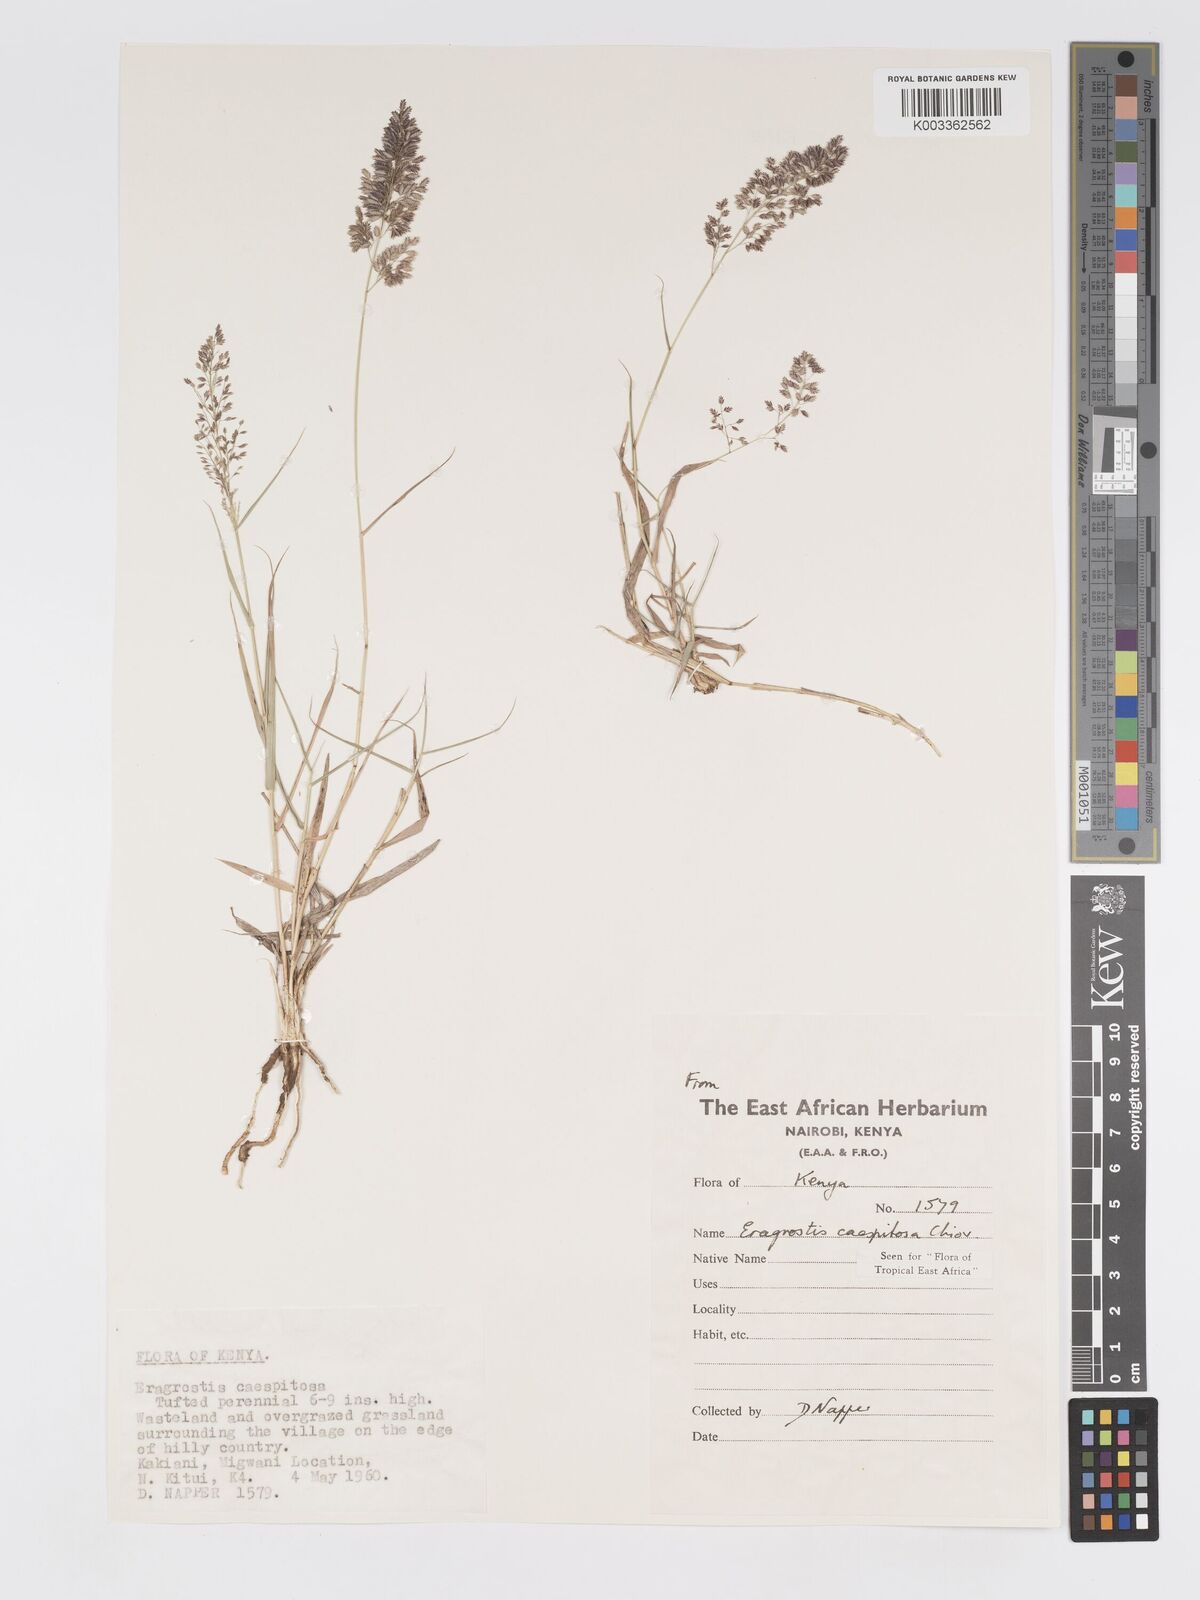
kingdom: Plantae
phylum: Tracheophyta
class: Liliopsida
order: Poales
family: Poaceae
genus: Eragrostis
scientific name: Eragrostis caespitosa
